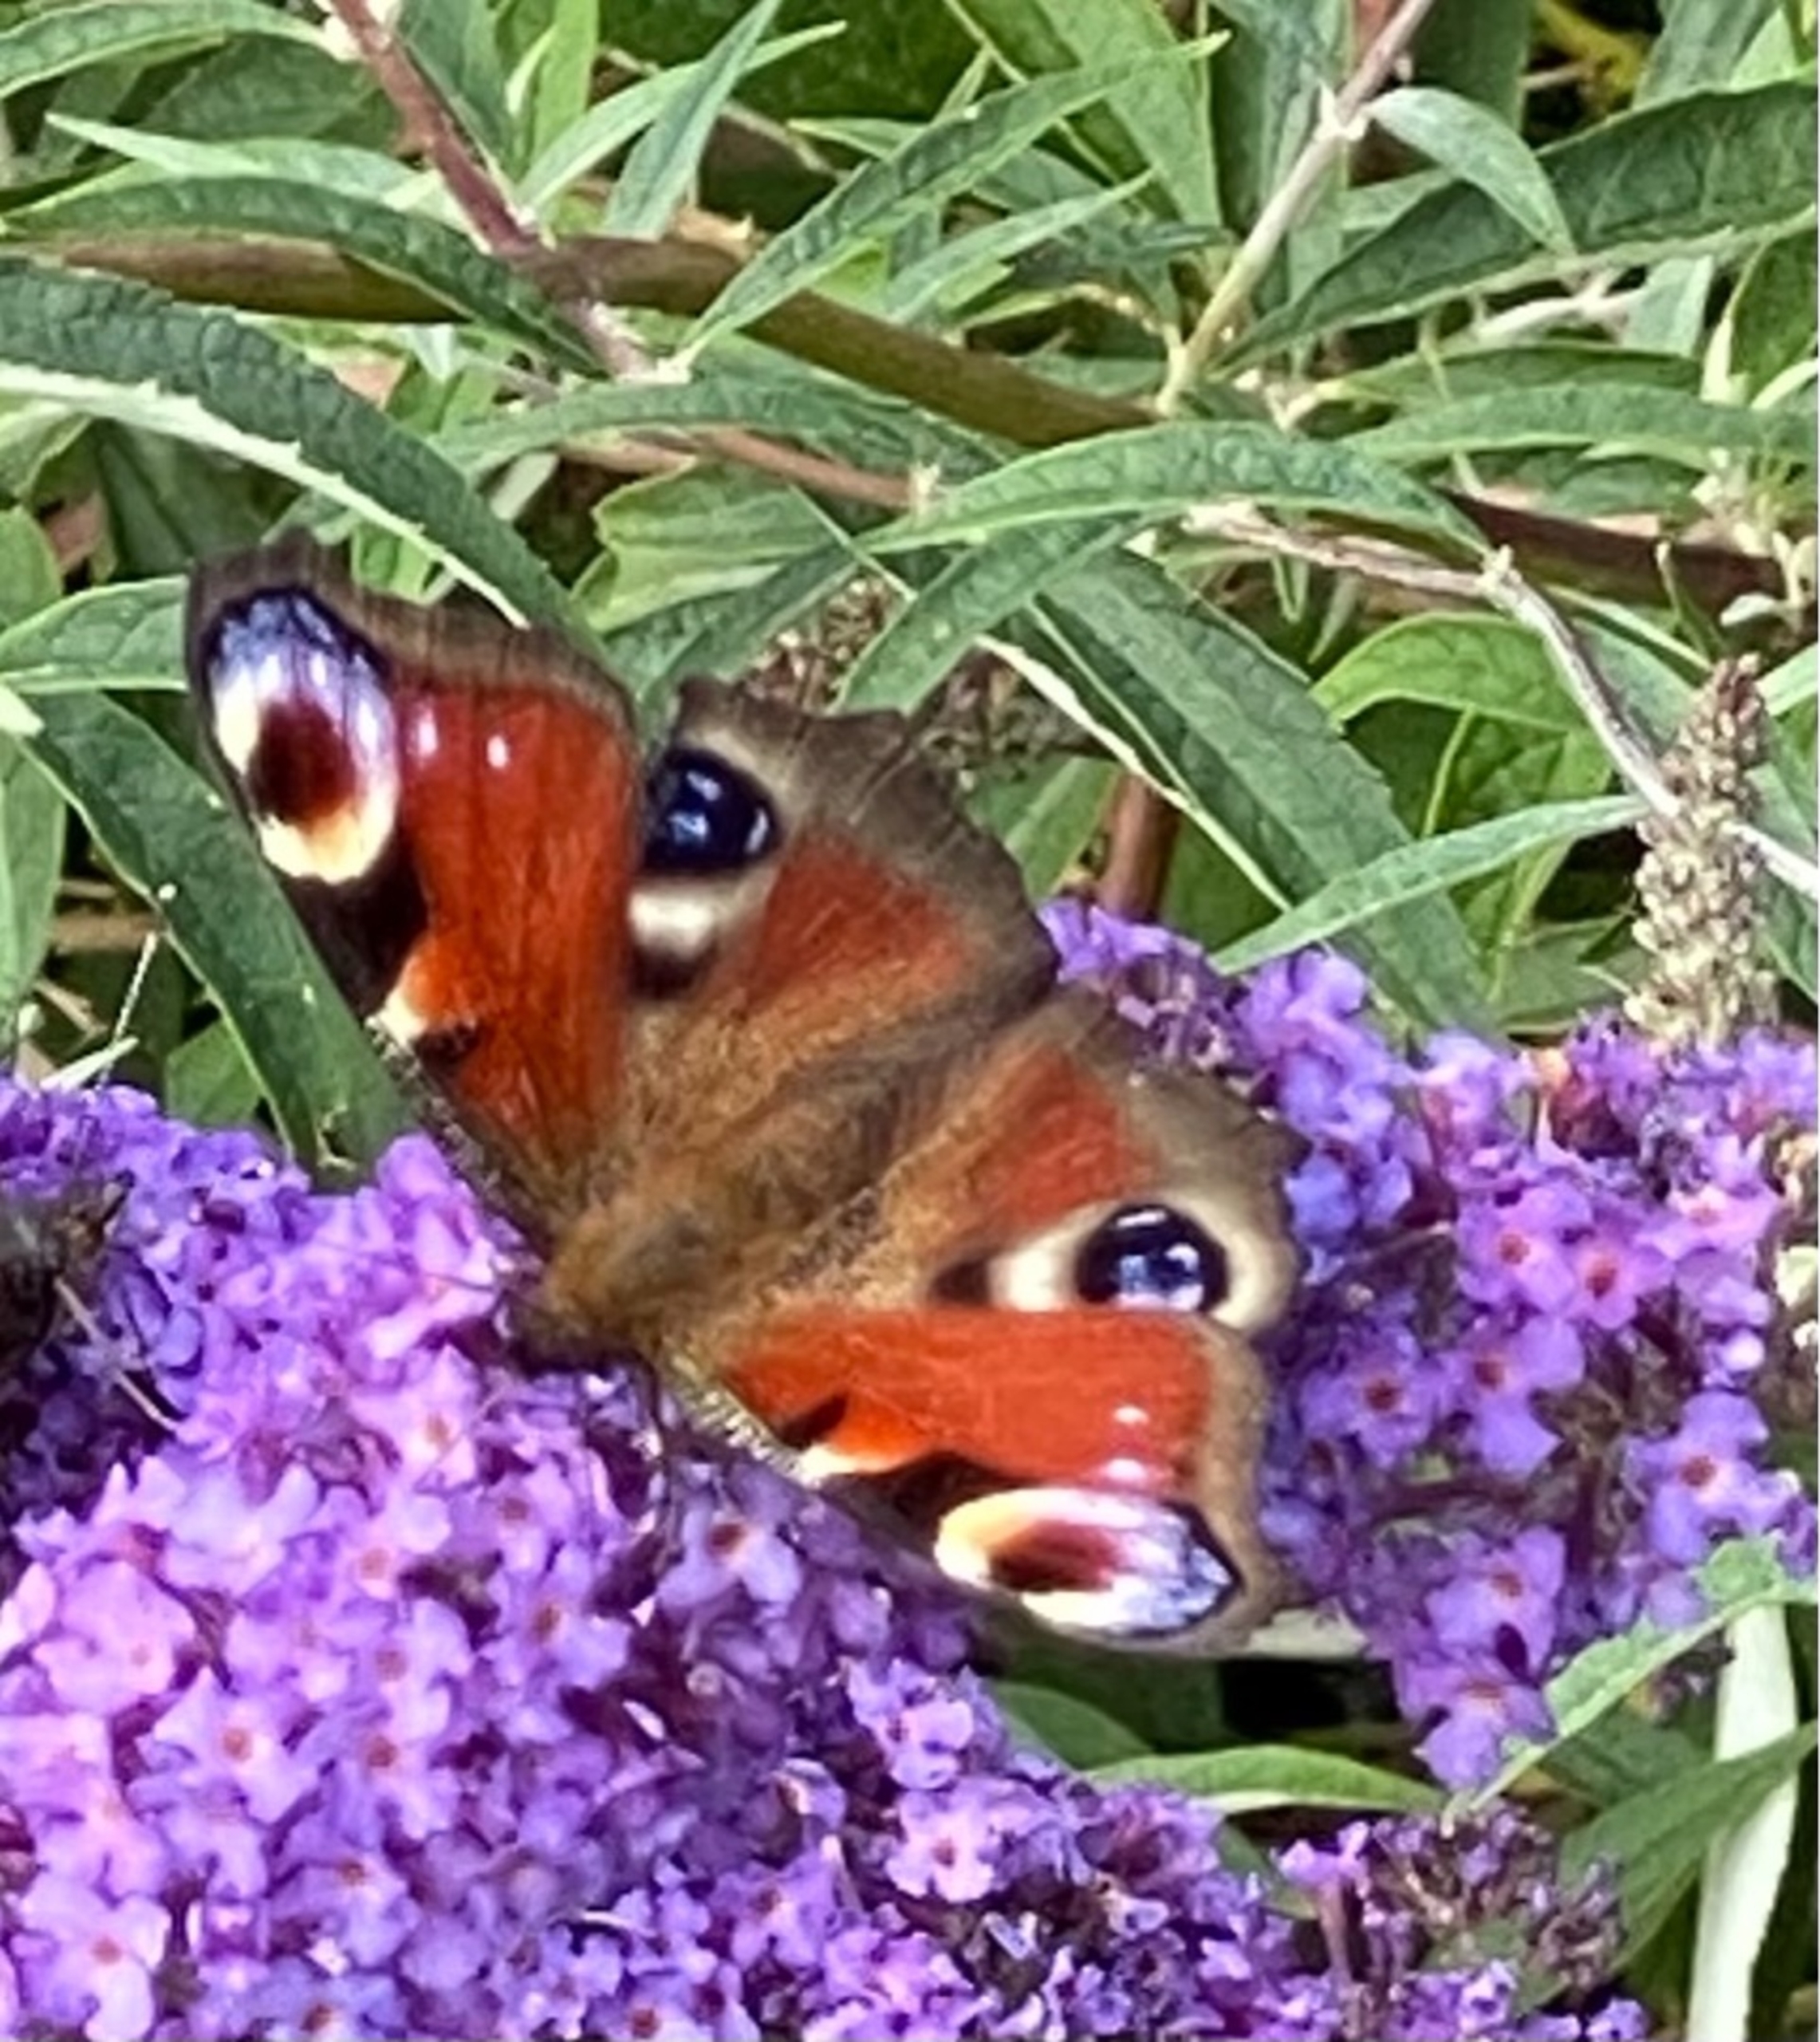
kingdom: Animalia
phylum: Arthropoda
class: Insecta
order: Lepidoptera
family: Nymphalidae
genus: Aglais
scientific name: Aglais io
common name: Dagpåfugleøje
